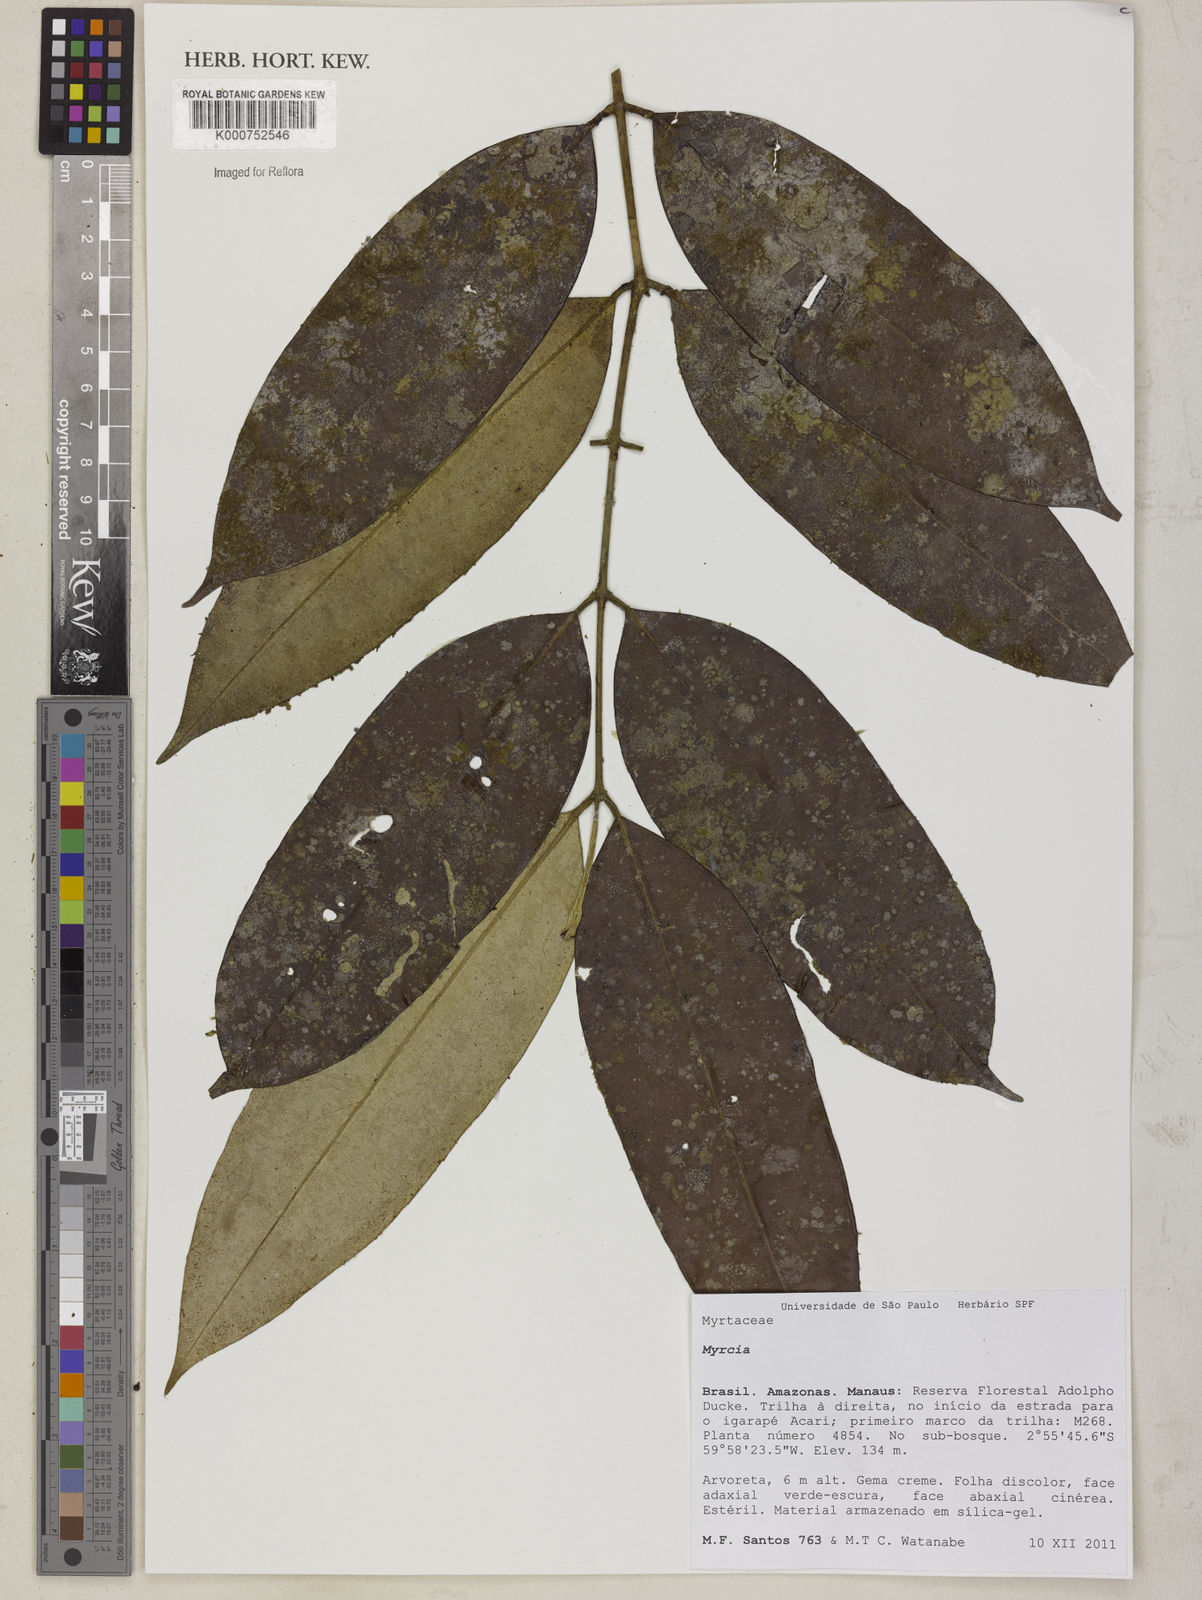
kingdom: Plantae
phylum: Tracheophyta
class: Magnoliopsida
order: Myrtales
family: Myrtaceae
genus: Myrcia
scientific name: Myrcia elevata
